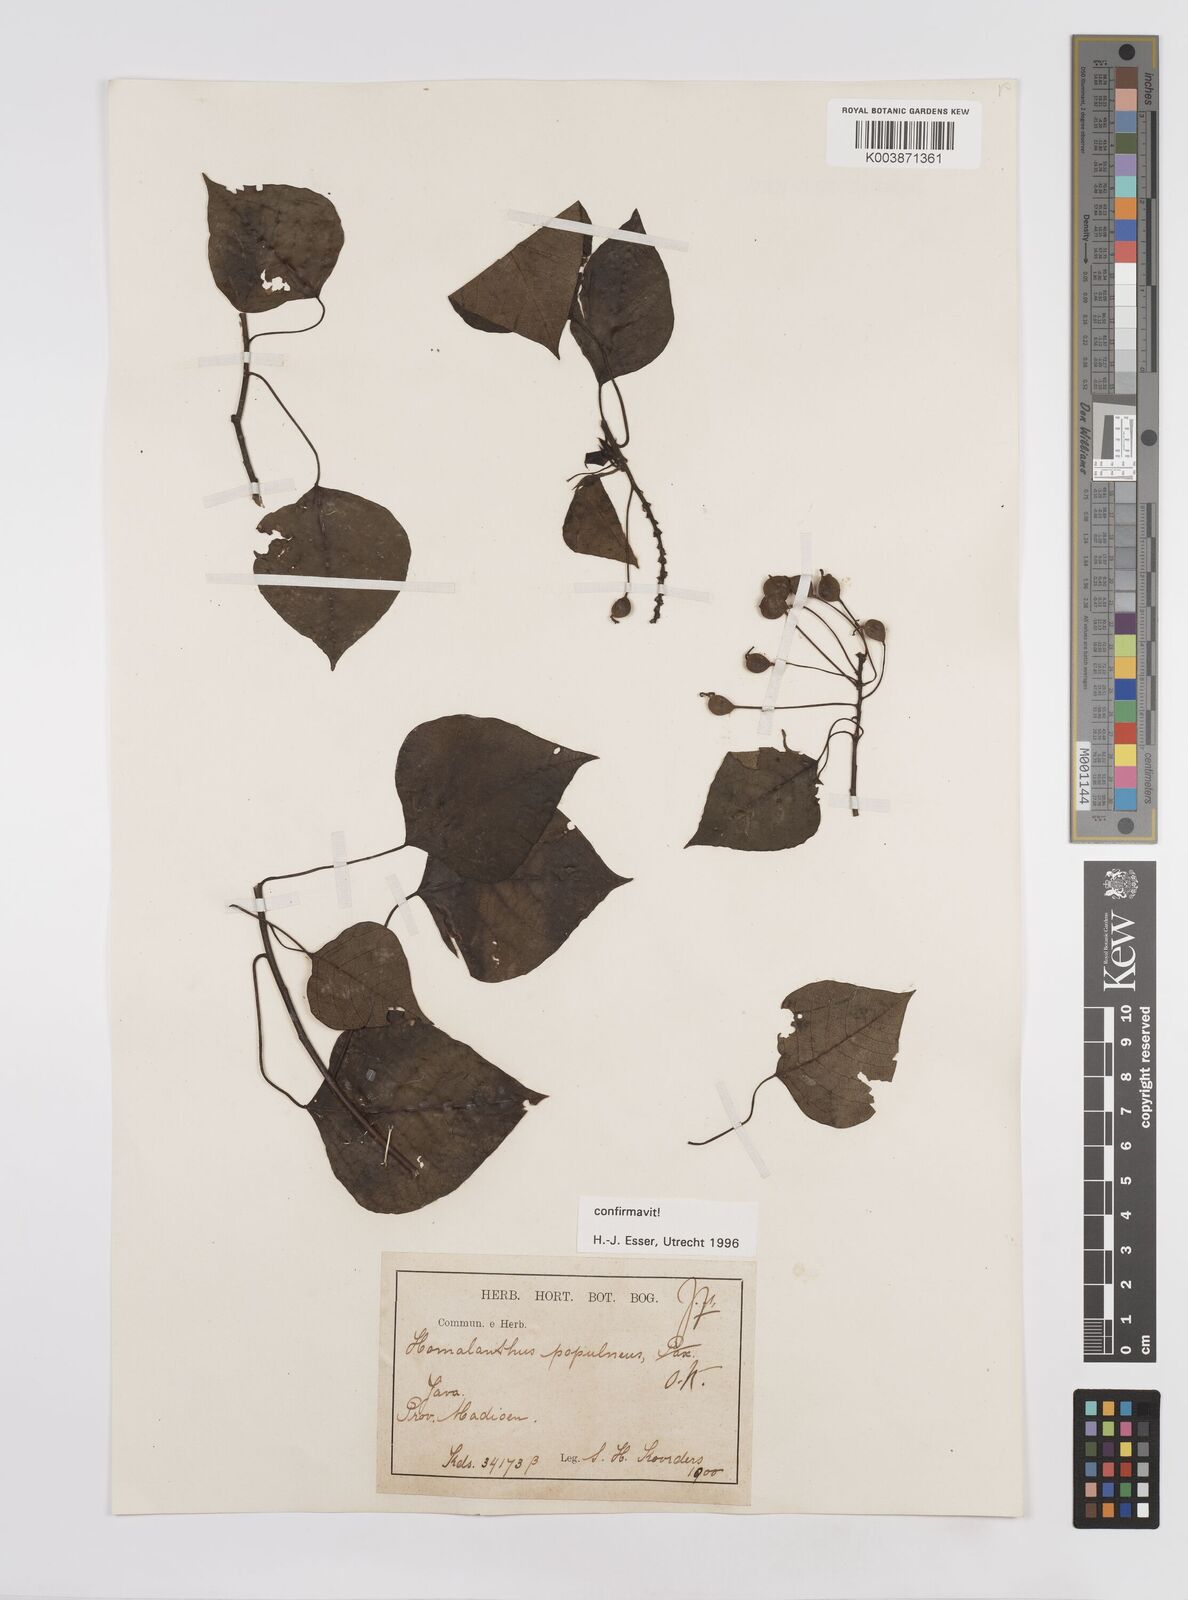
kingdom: Plantae
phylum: Tracheophyta
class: Magnoliopsida
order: Malpighiales
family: Euphorbiaceae
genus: Homalanthus
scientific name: Homalanthus populneus
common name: Spurge
